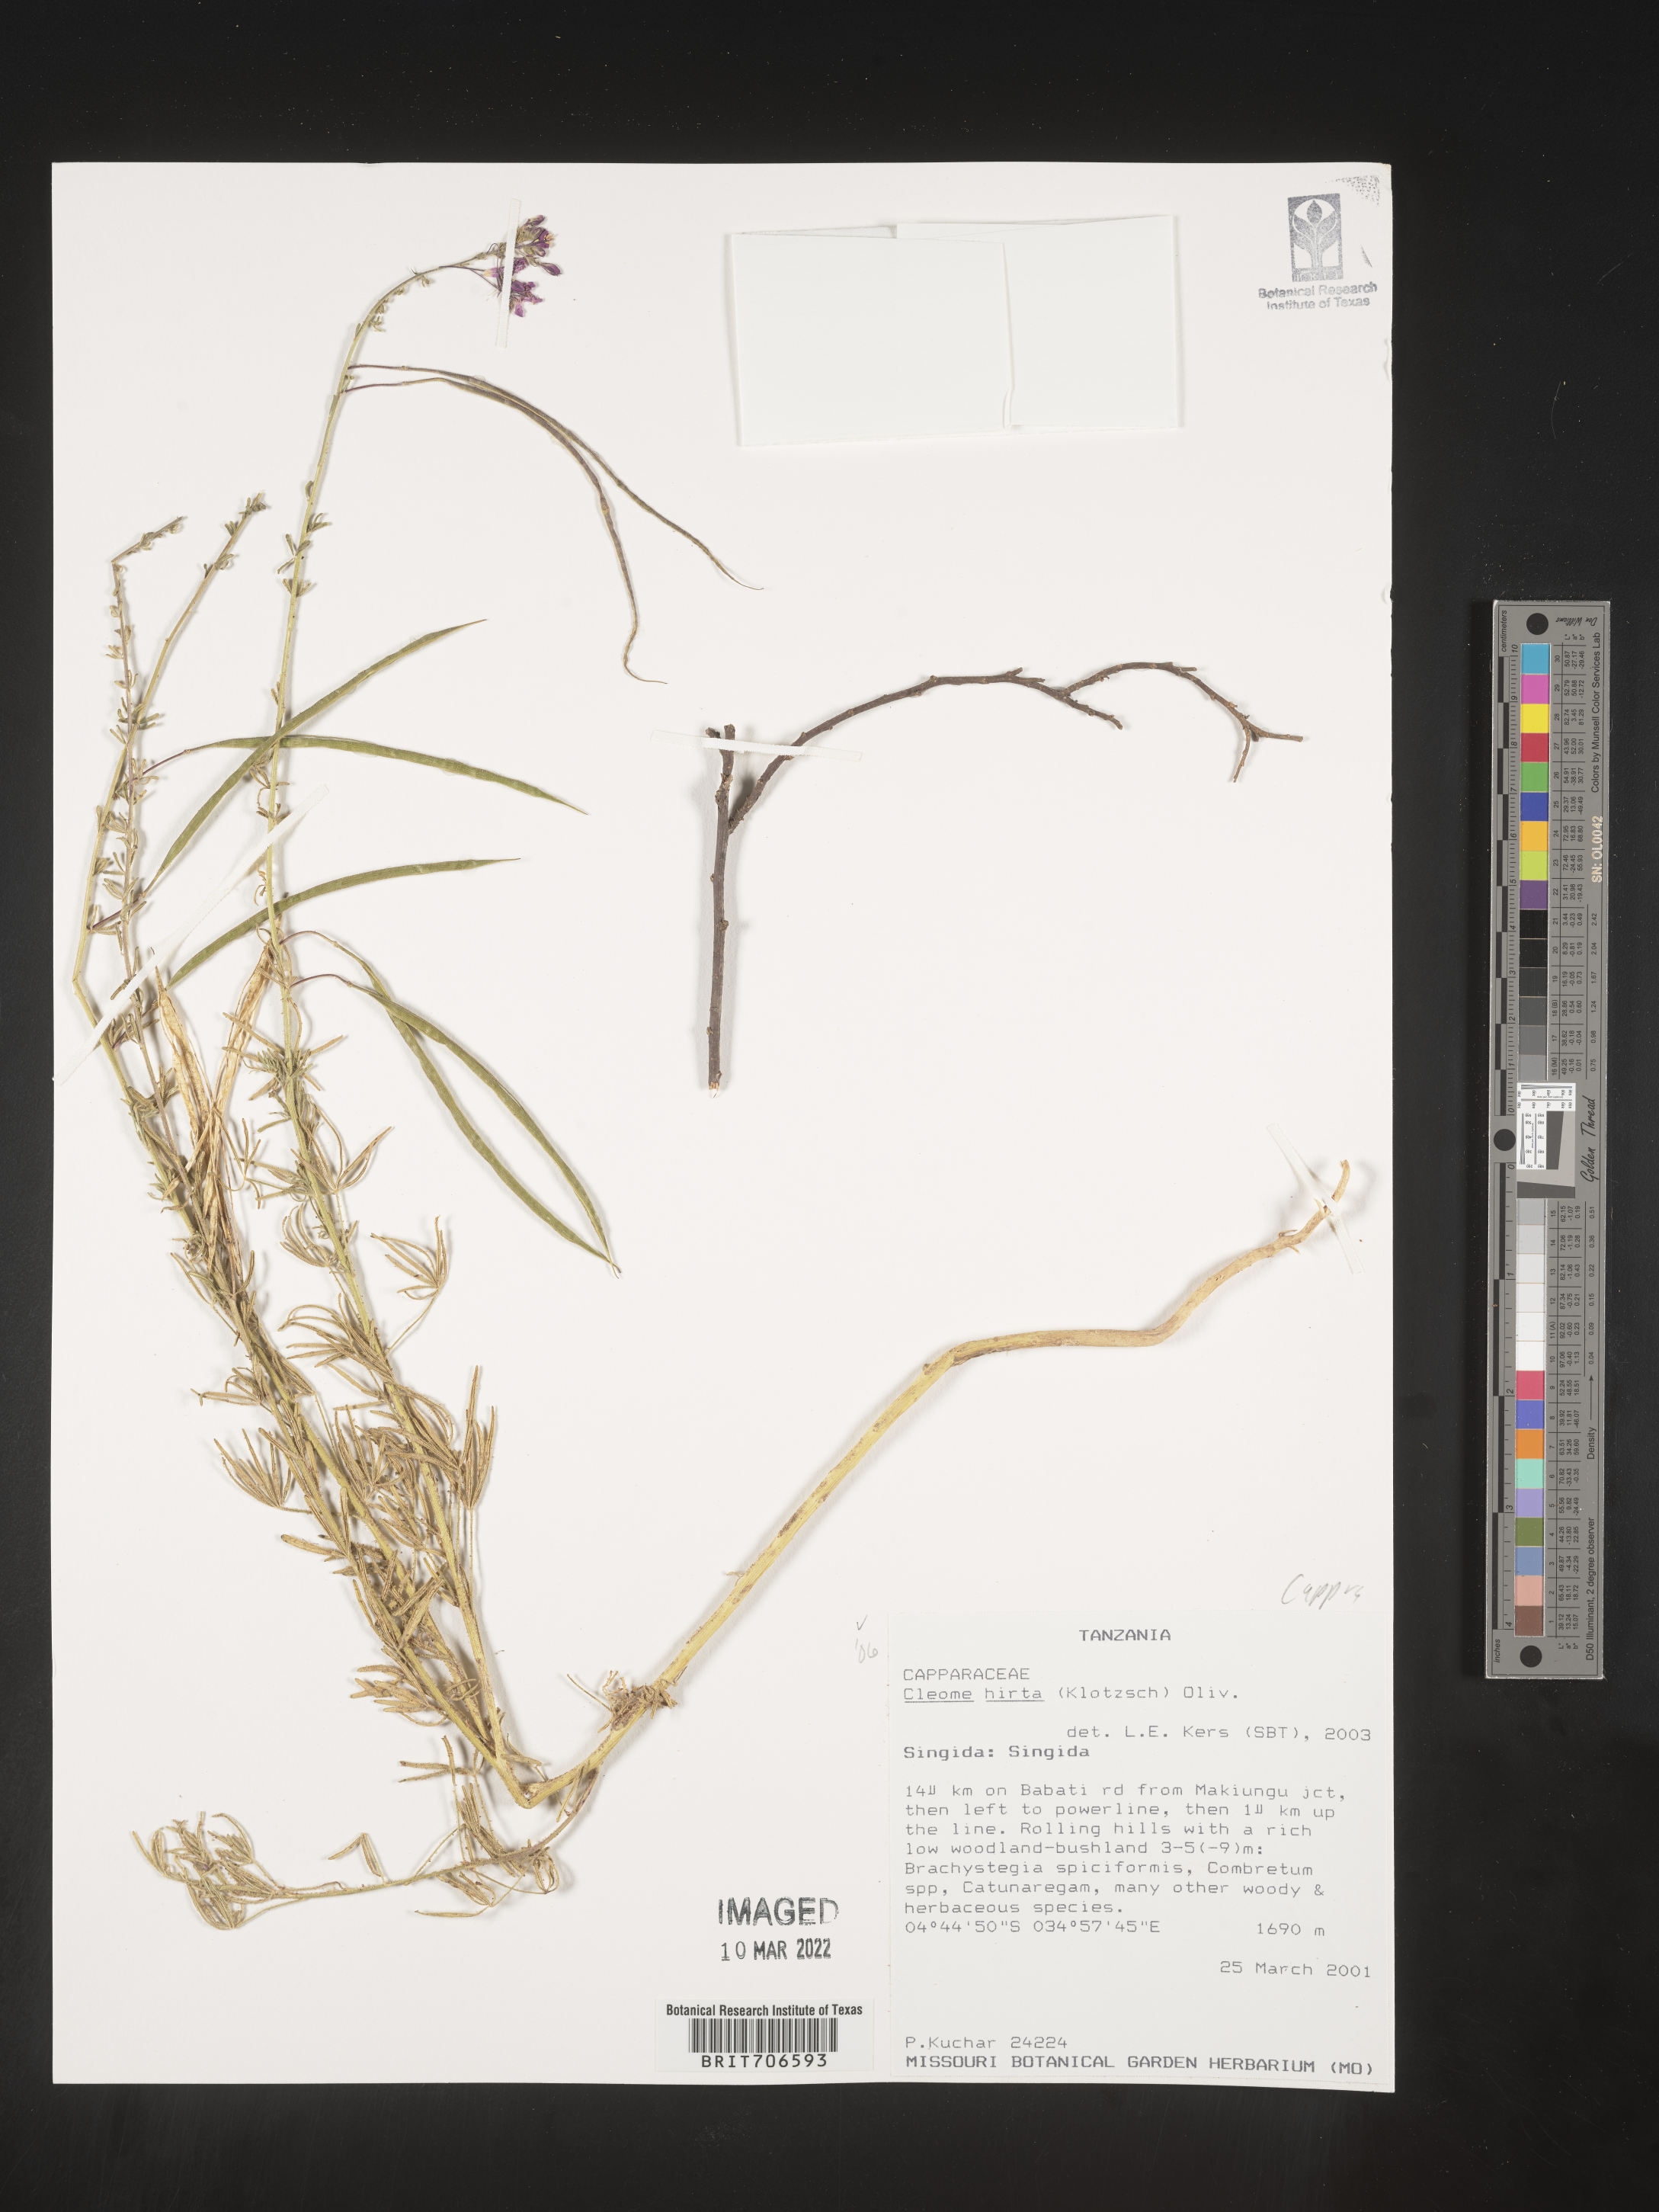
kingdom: Plantae
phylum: Tracheophyta
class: Magnoliopsida
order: Brassicales
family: Cleomaceae
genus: Cleome
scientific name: Cleome
